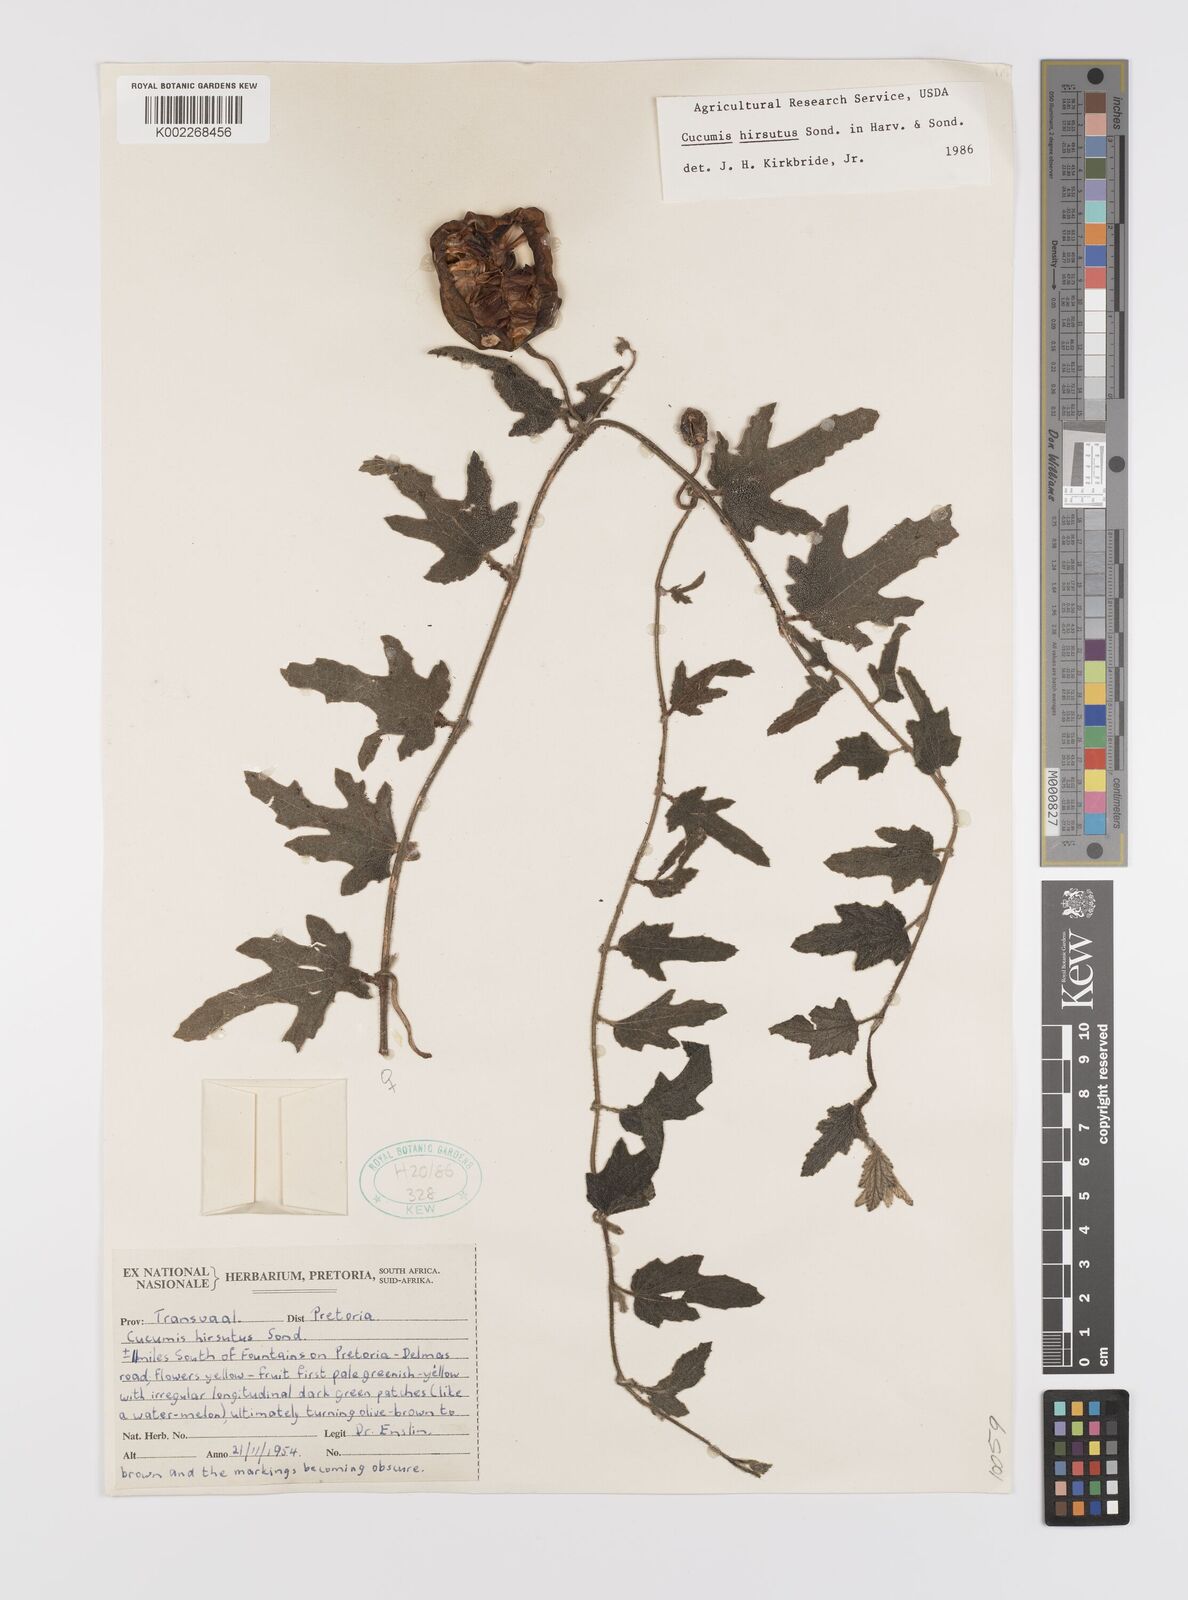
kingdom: Plantae
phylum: Tracheophyta
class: Magnoliopsida
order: Cucurbitales
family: Cucurbitaceae
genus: Cucumis
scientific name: Cucumis hirsutus
